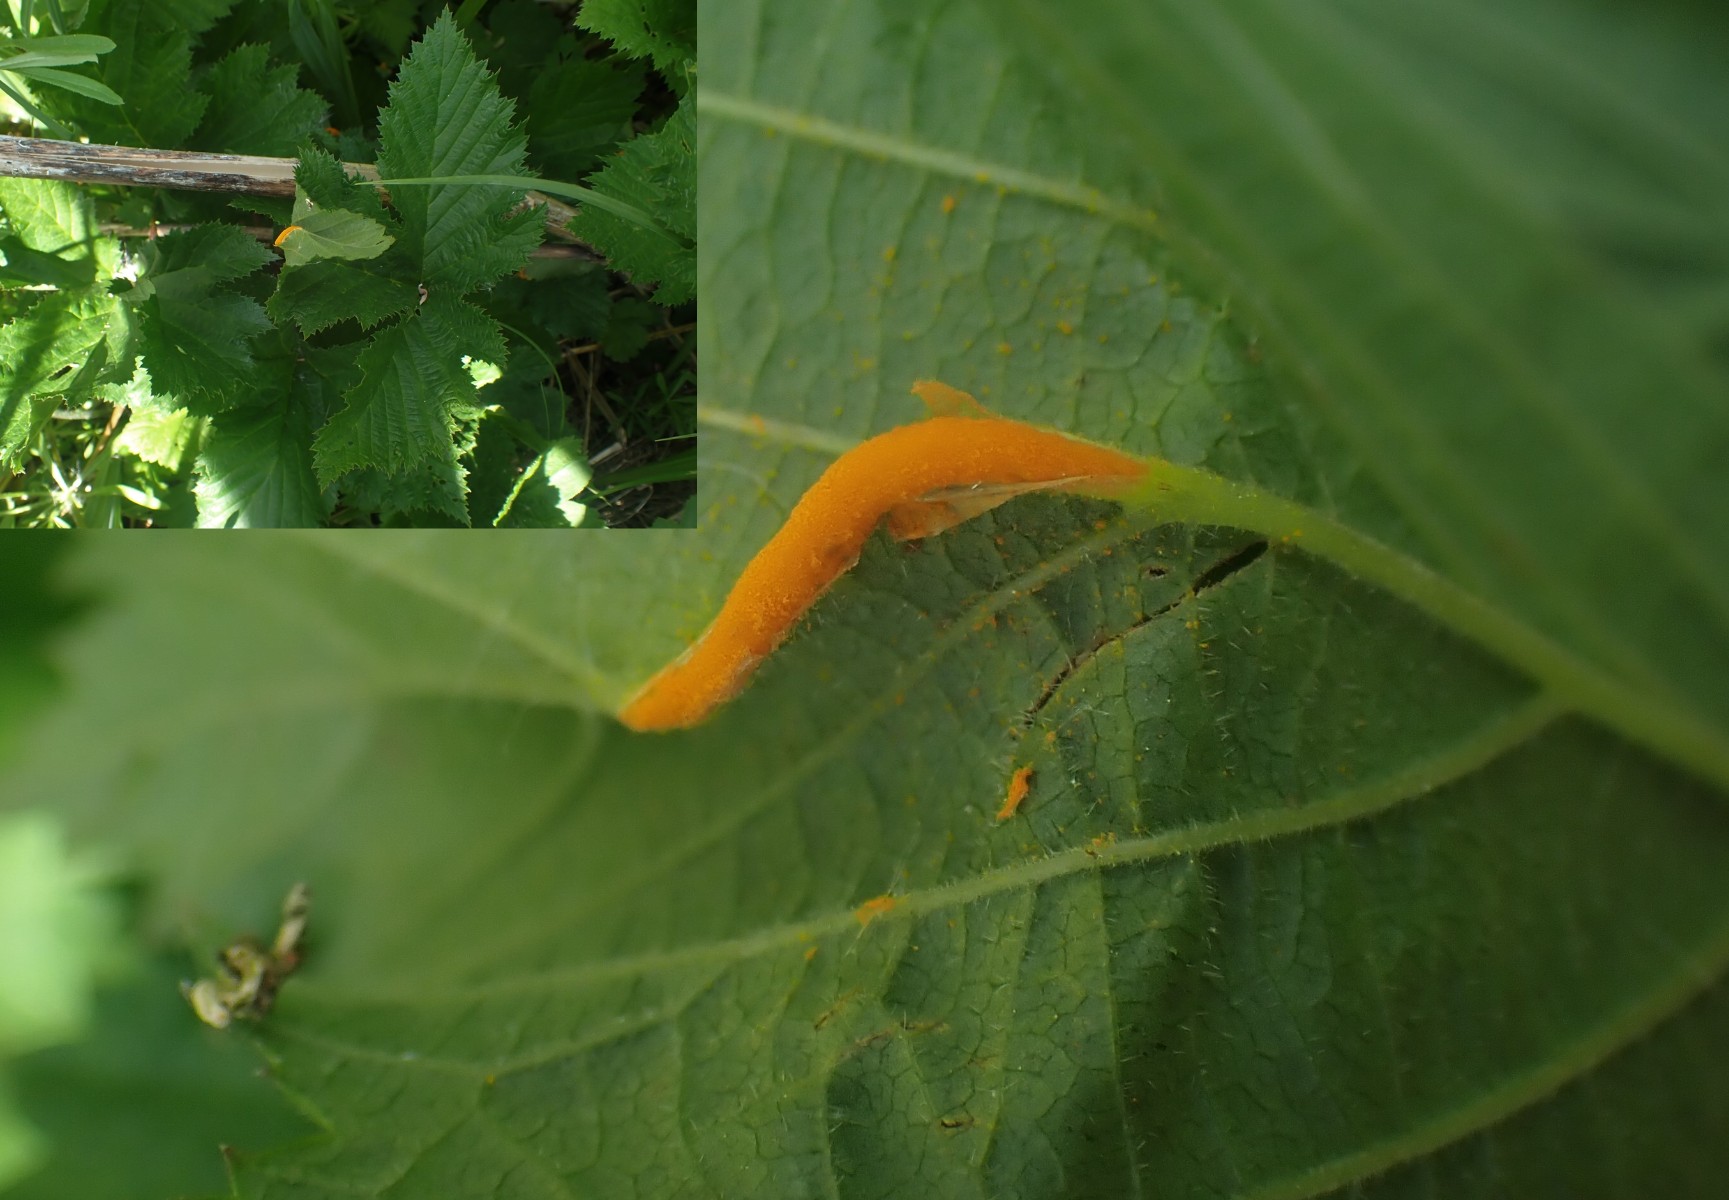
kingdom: Fungi
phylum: Basidiomycota
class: Pucciniomycetes
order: Pucciniales
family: Raveneliaceae
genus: Triphragmium
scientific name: Triphragmium ulmariae
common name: almindelig mjødurtrust
